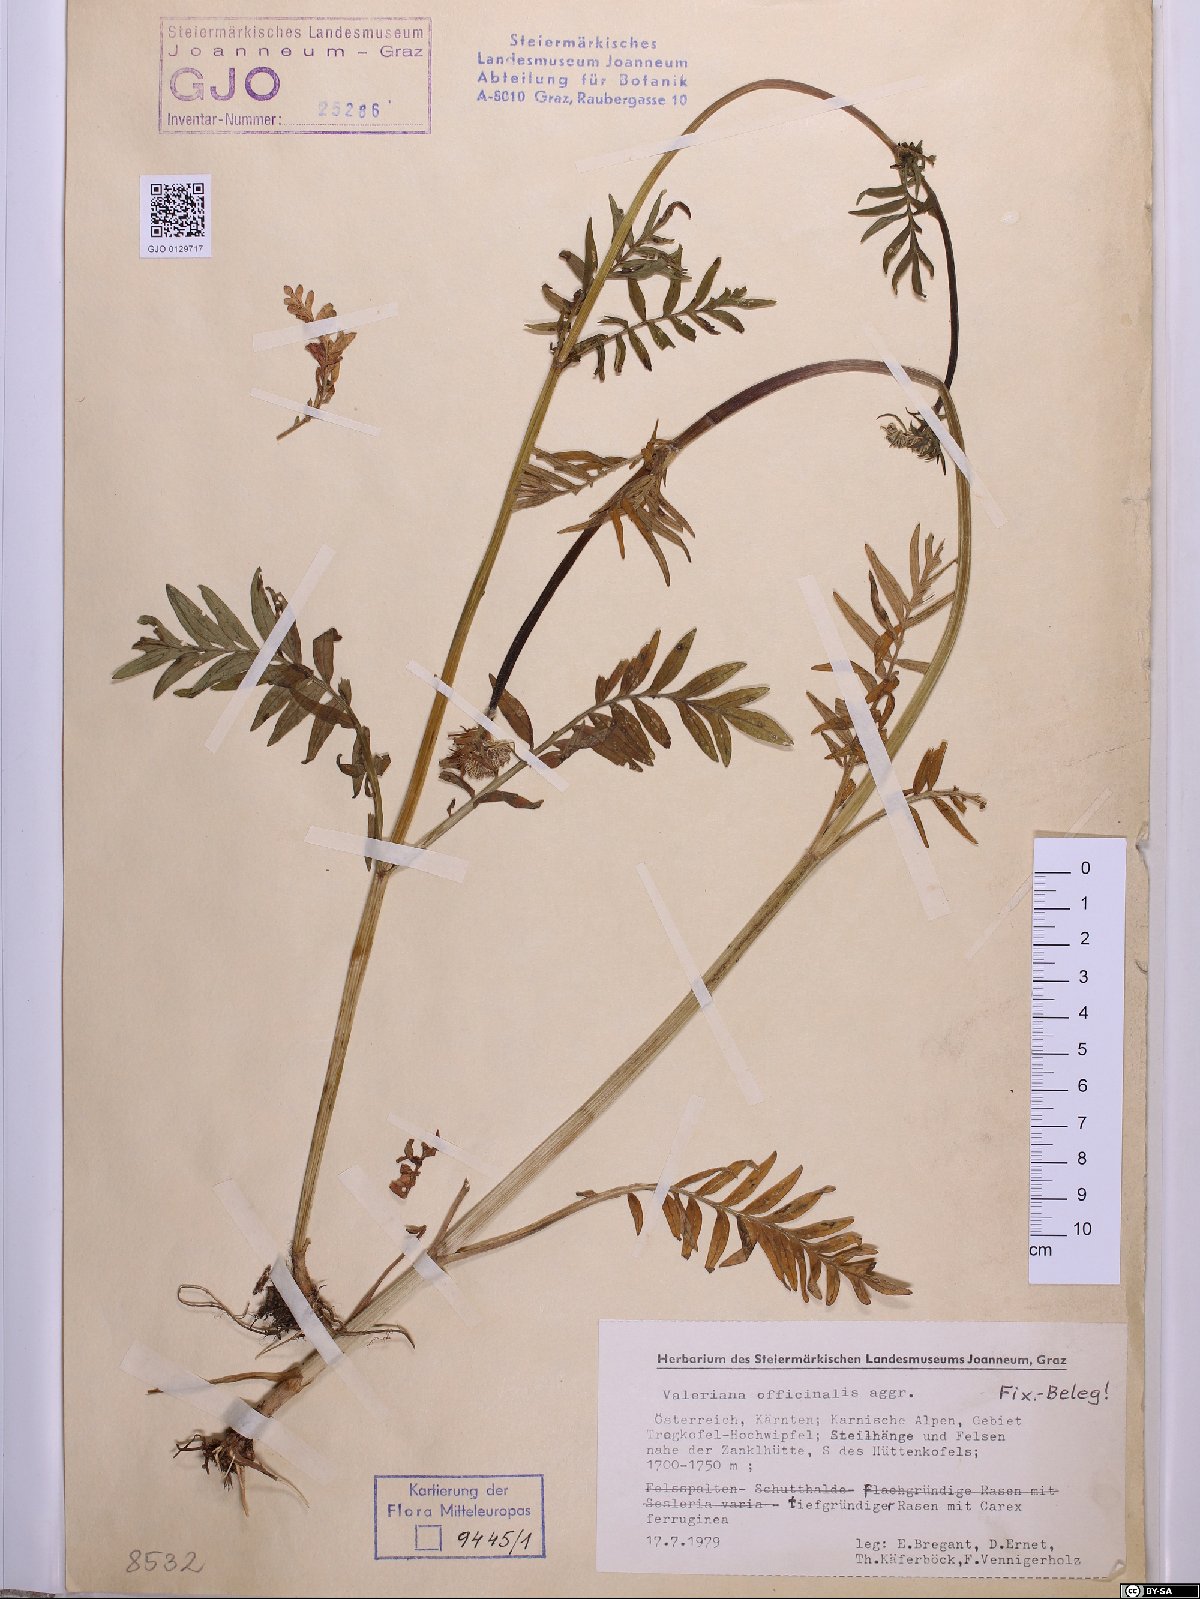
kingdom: Plantae
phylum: Tracheophyta
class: Magnoliopsida
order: Dipsacales
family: Caprifoliaceae
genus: Valeriana
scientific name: Valeriana officinalis
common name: Common valerian
